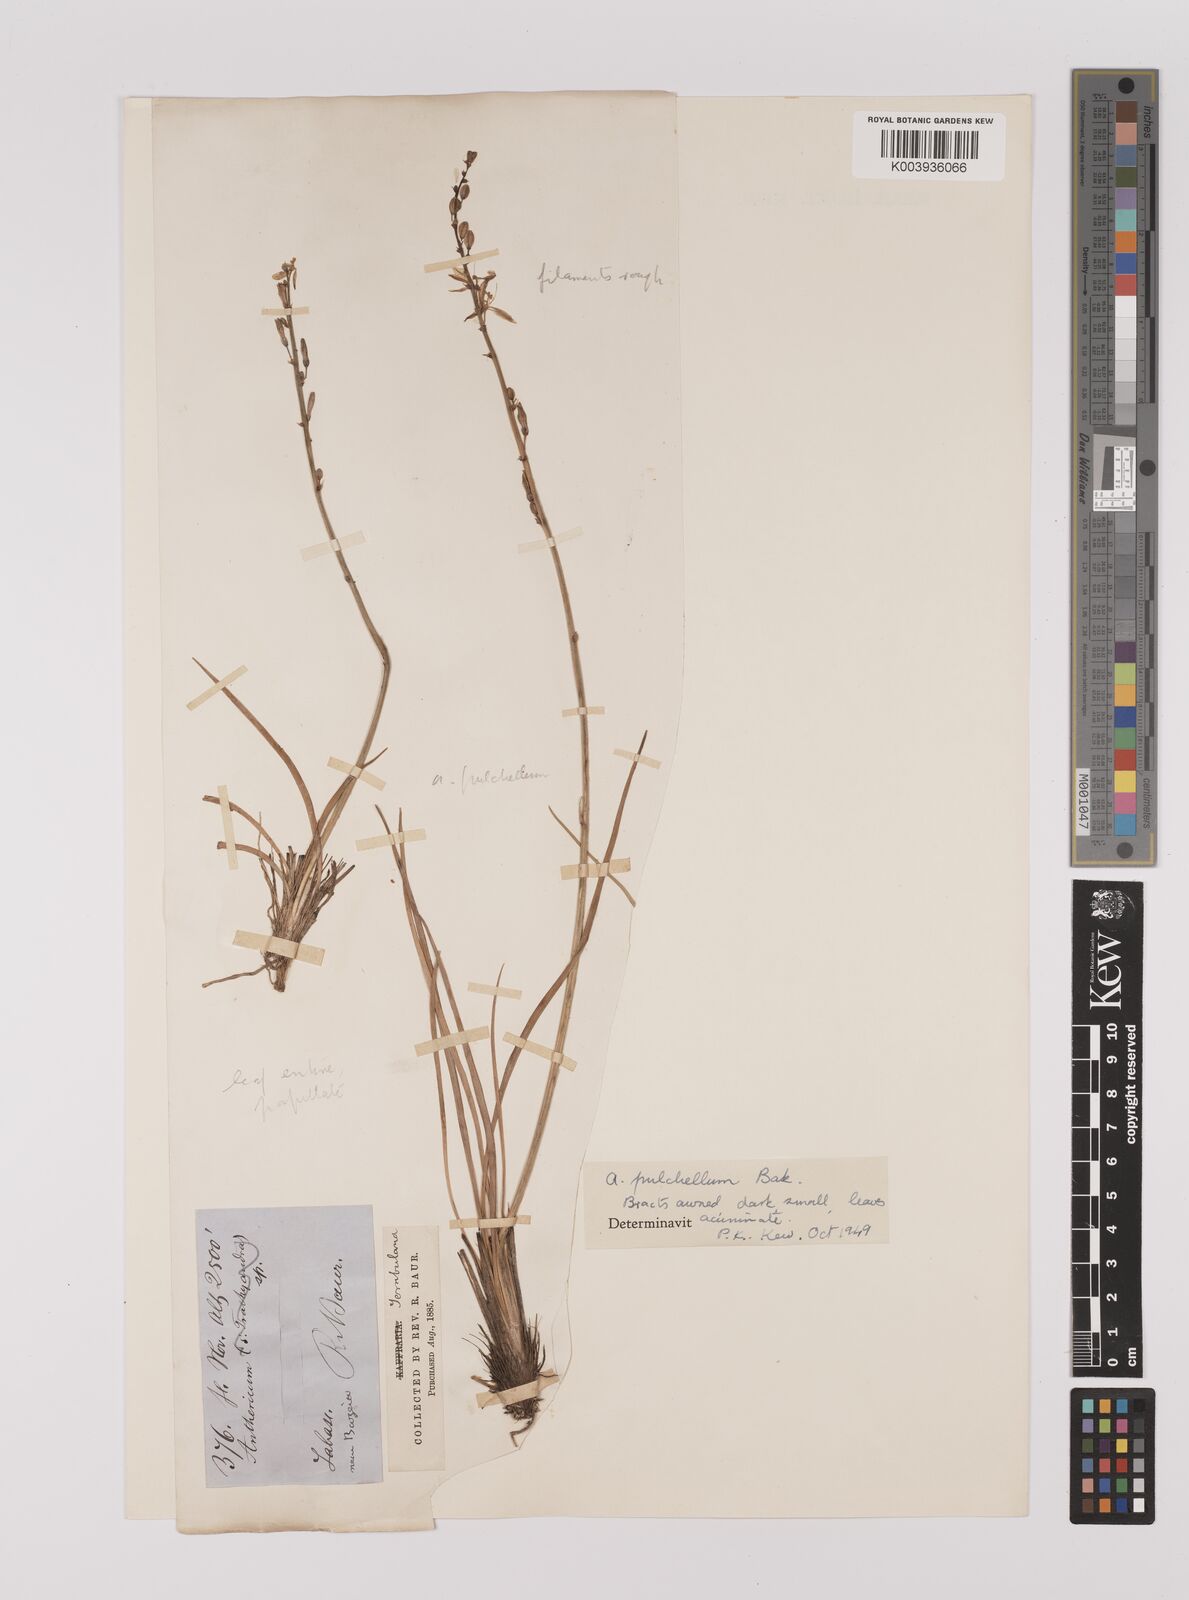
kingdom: Plantae
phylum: Tracheophyta
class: Liliopsida
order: Asparagales
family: Asparagaceae
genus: Chlorophytum
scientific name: Chlorophytum saundersiae
